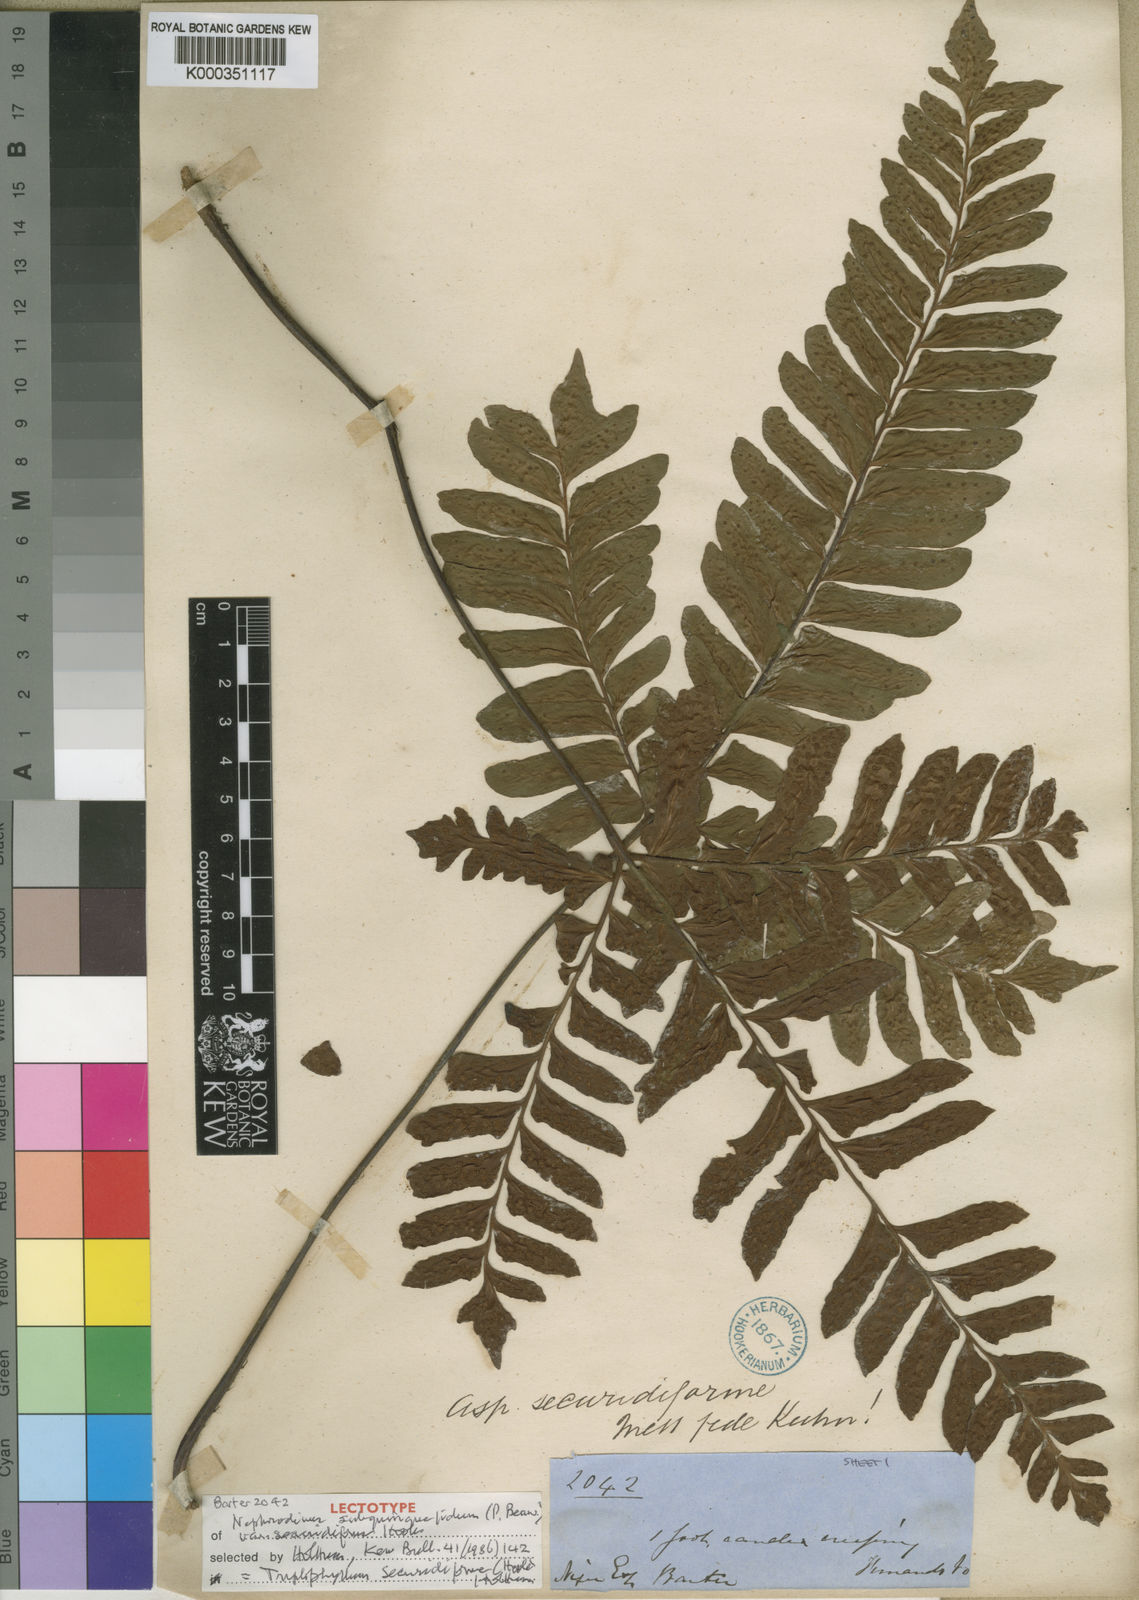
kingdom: Plantae
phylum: Tracheophyta
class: Polypodiopsida
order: Polypodiales
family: Tectariaceae
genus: Triplophyllum
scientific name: Triplophyllum securidiforme
